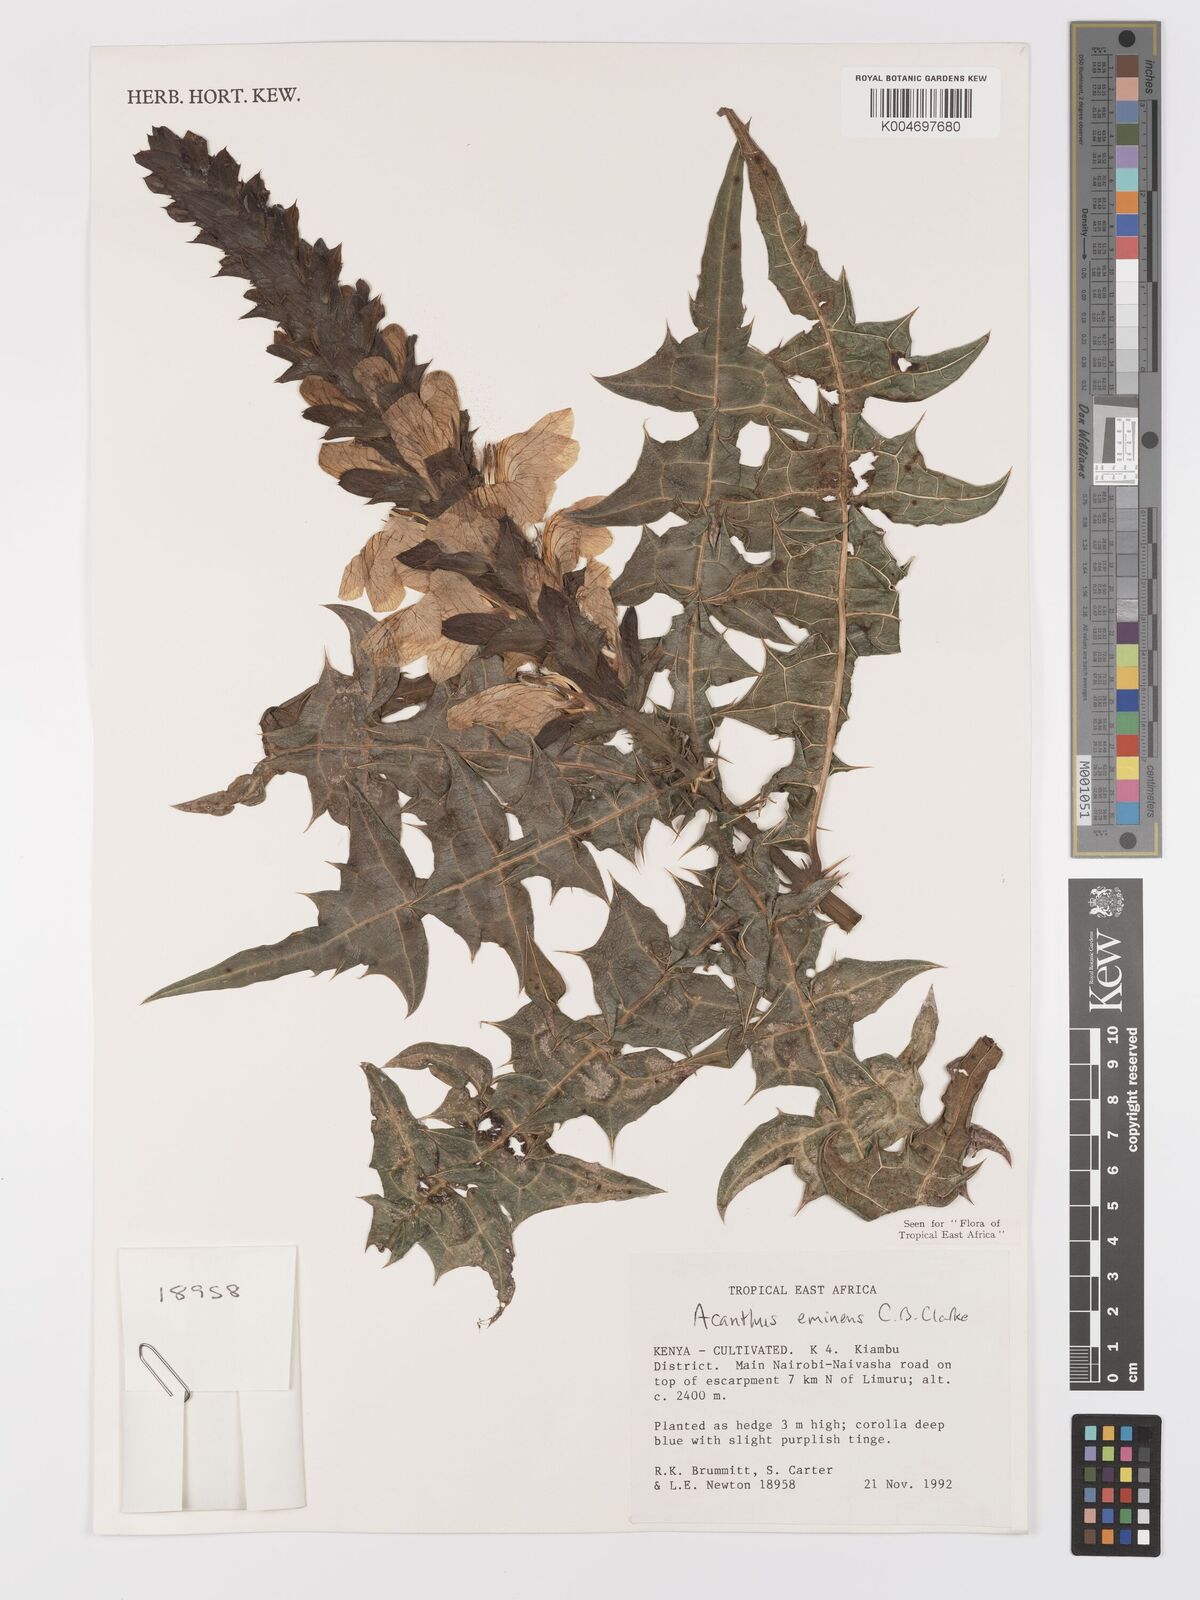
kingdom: Plantae
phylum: Tracheophyta
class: Magnoliopsida
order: Lamiales
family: Acanthaceae
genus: Acanthus
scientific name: Acanthus eminens
